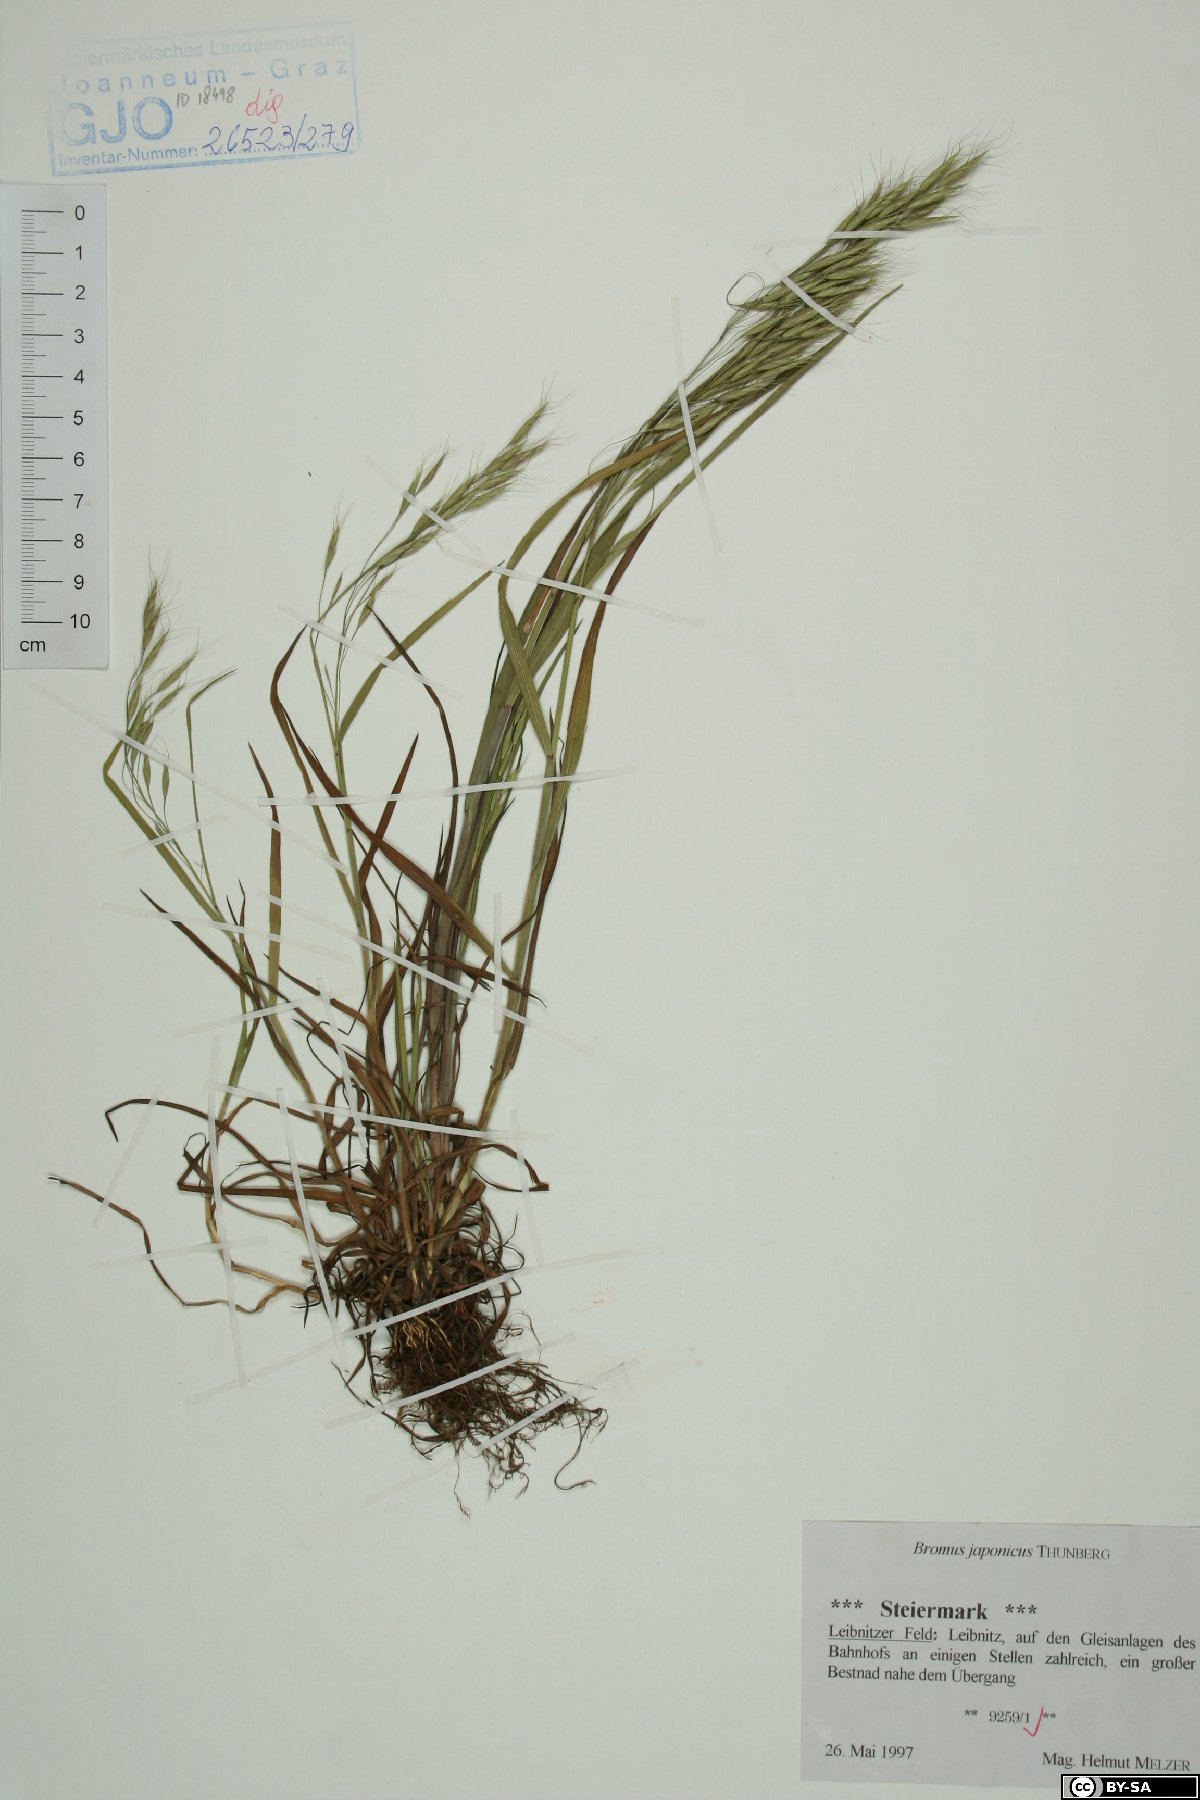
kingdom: Plantae
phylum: Tracheophyta
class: Liliopsida
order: Poales
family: Poaceae
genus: Bromus
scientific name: Bromus japonicus
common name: Japanese brome
